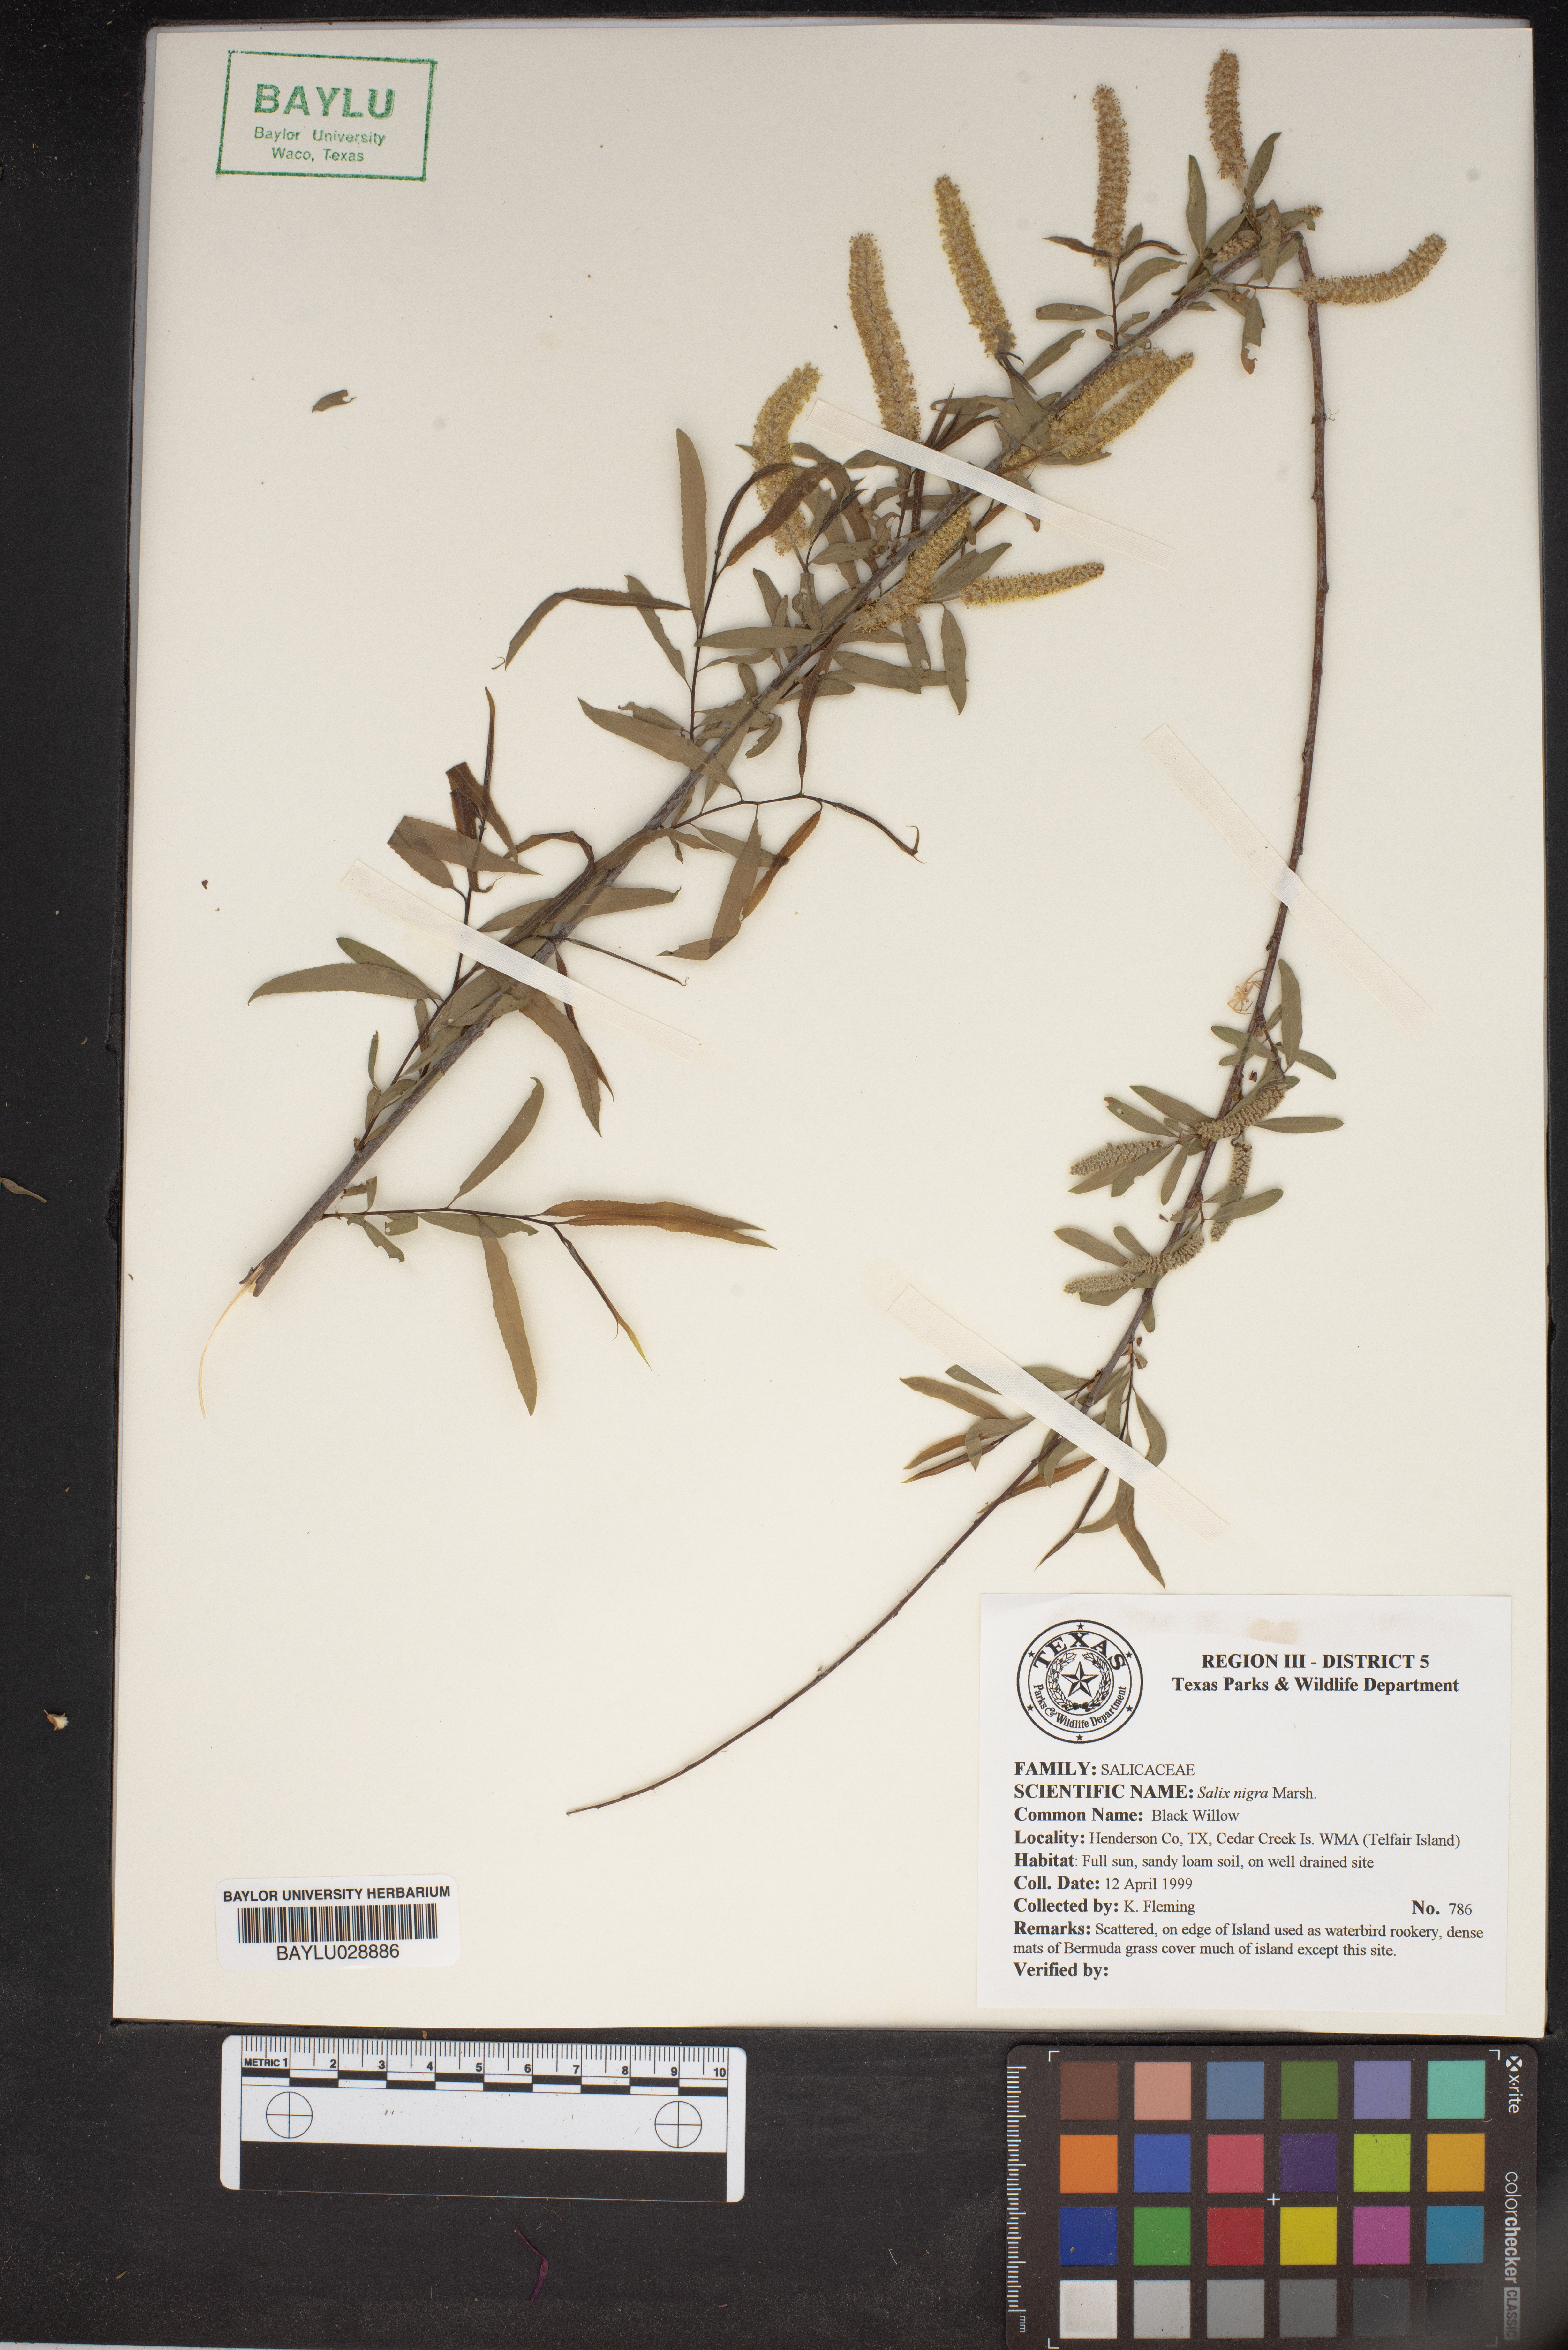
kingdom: Plantae
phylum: Tracheophyta
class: Magnoliopsida
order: Malpighiales
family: Salicaceae
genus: Salix
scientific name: Salix nigra
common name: Black willow
